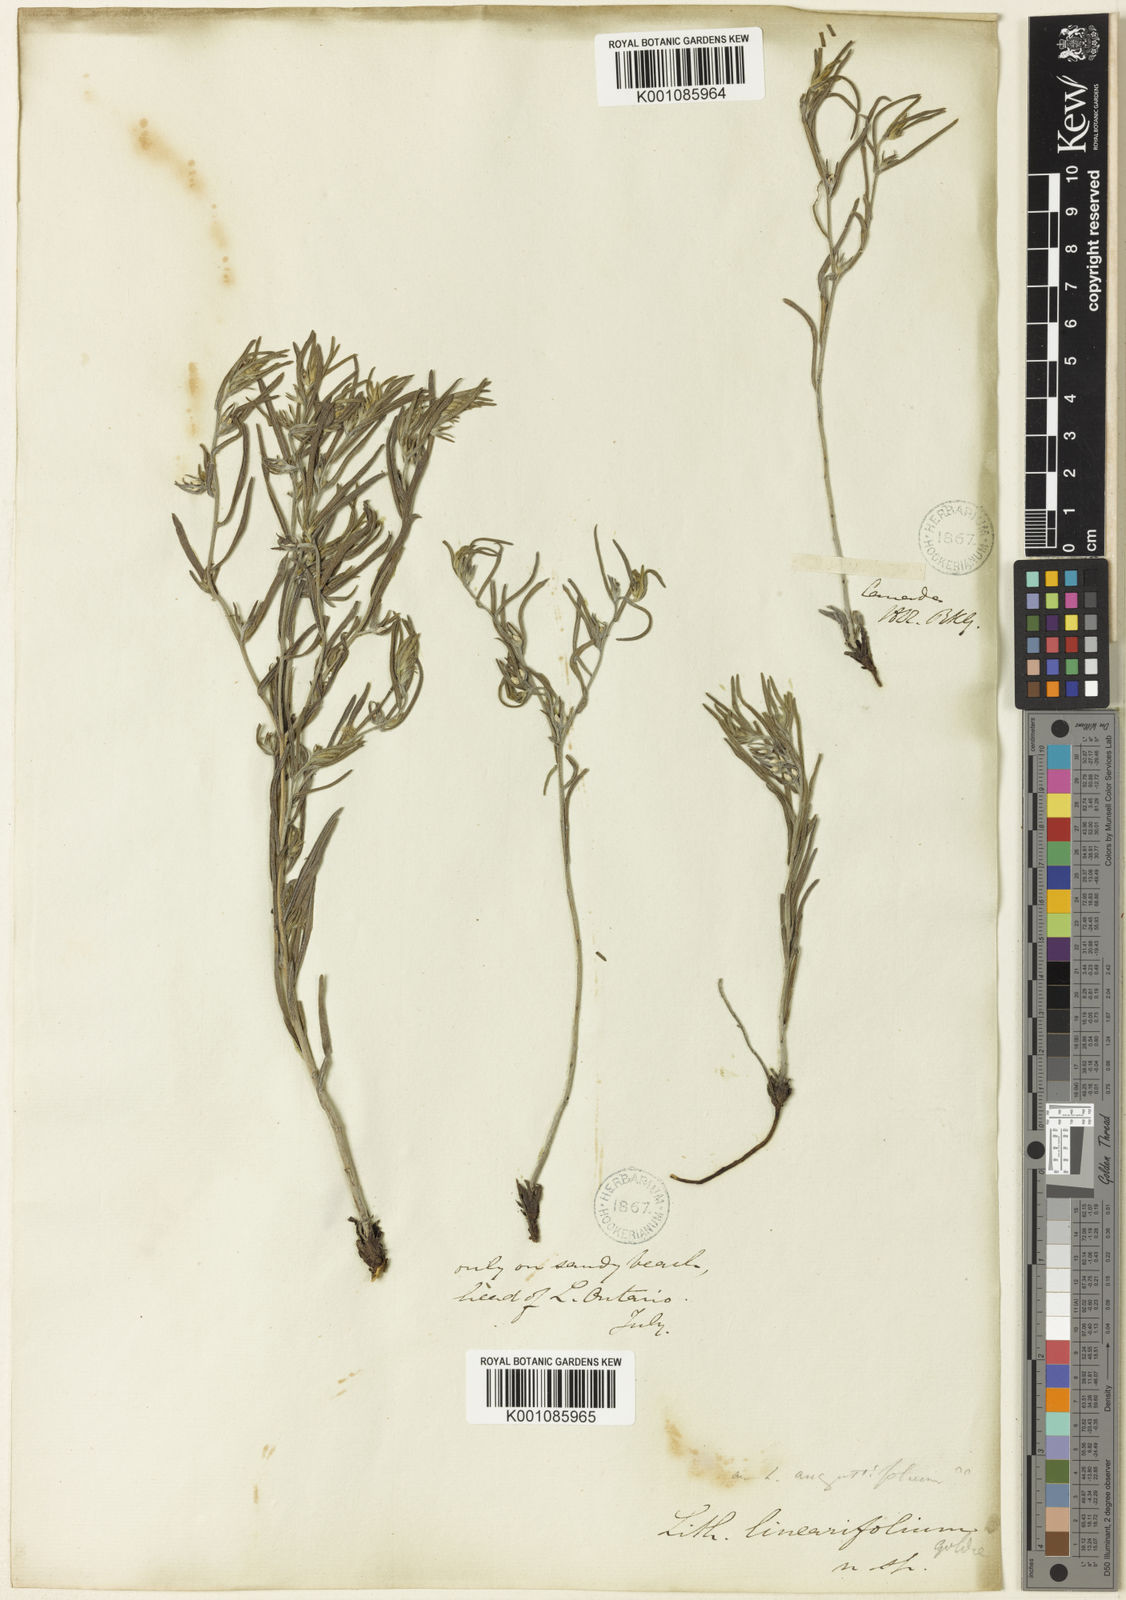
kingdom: Plantae
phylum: Tracheophyta
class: Magnoliopsida
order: Boraginales
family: Boraginaceae
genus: Lithospermum
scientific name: Lithospermum incisum
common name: Fringed gromwell
